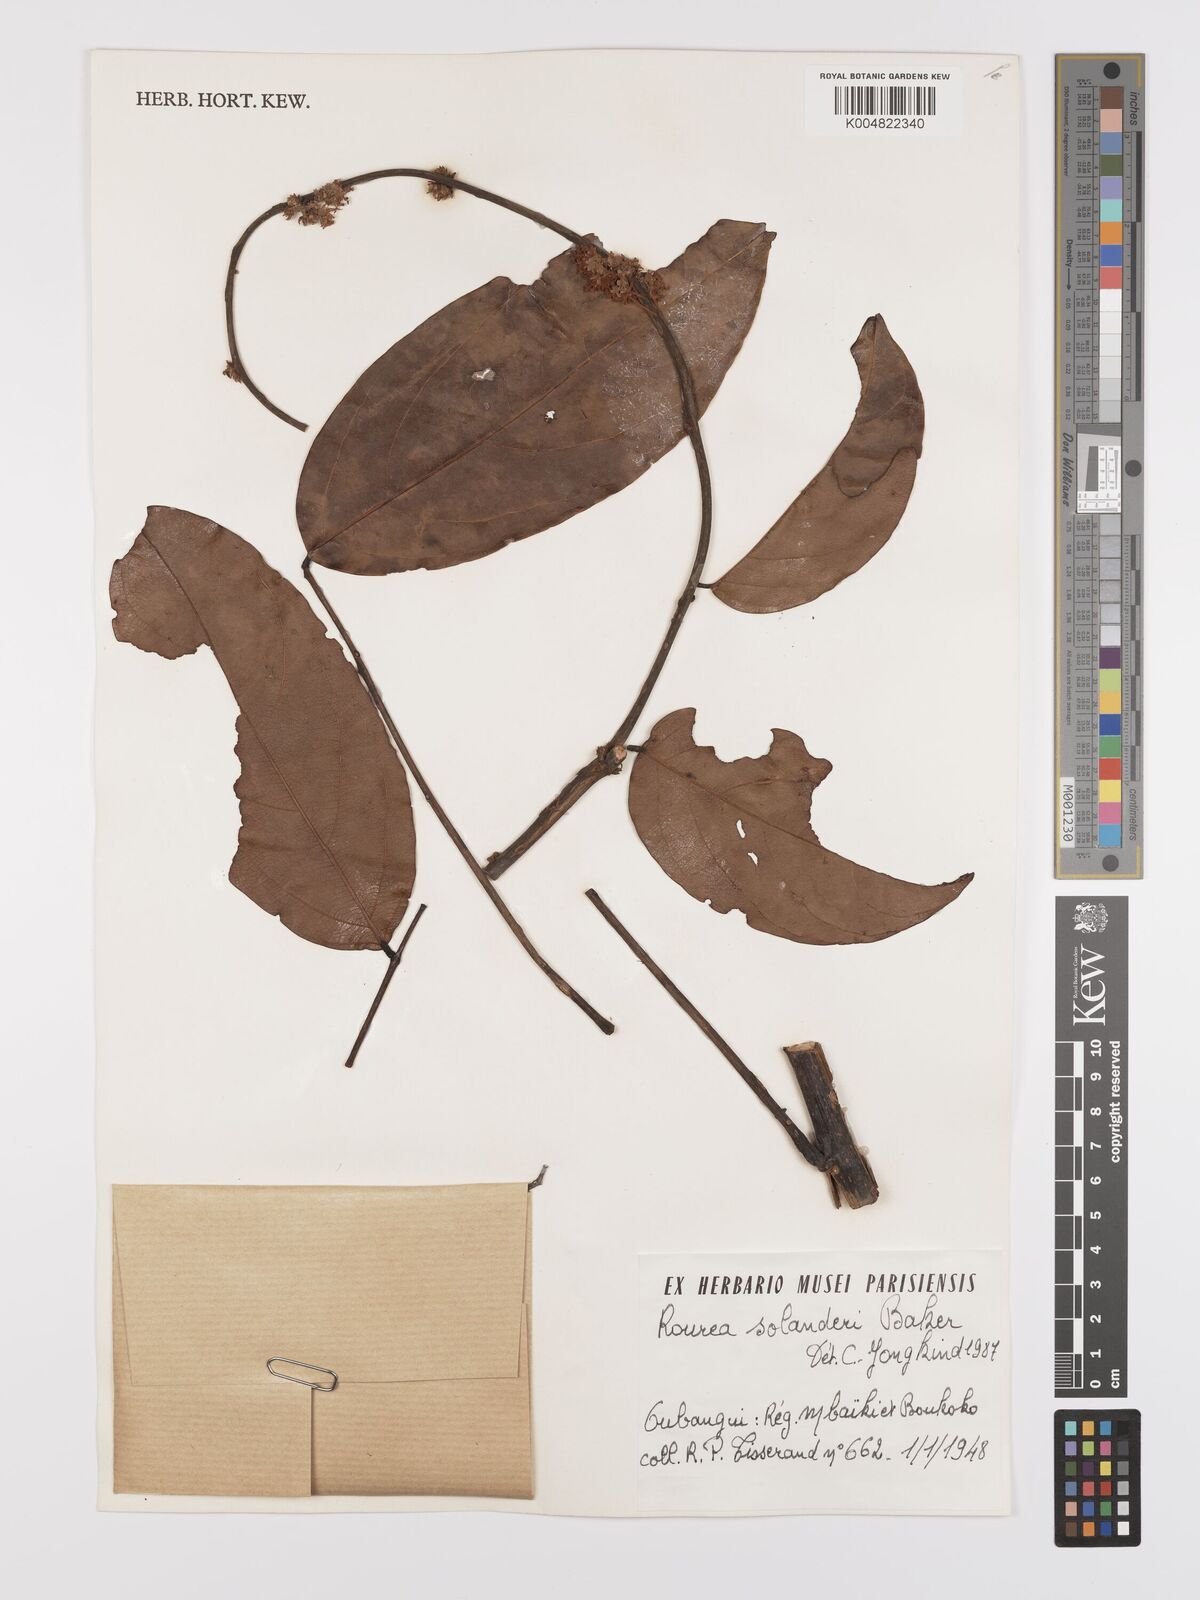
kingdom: Plantae
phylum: Tracheophyta
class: Magnoliopsida
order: Oxalidales
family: Connaraceae
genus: Rourea
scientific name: Rourea solanderi
